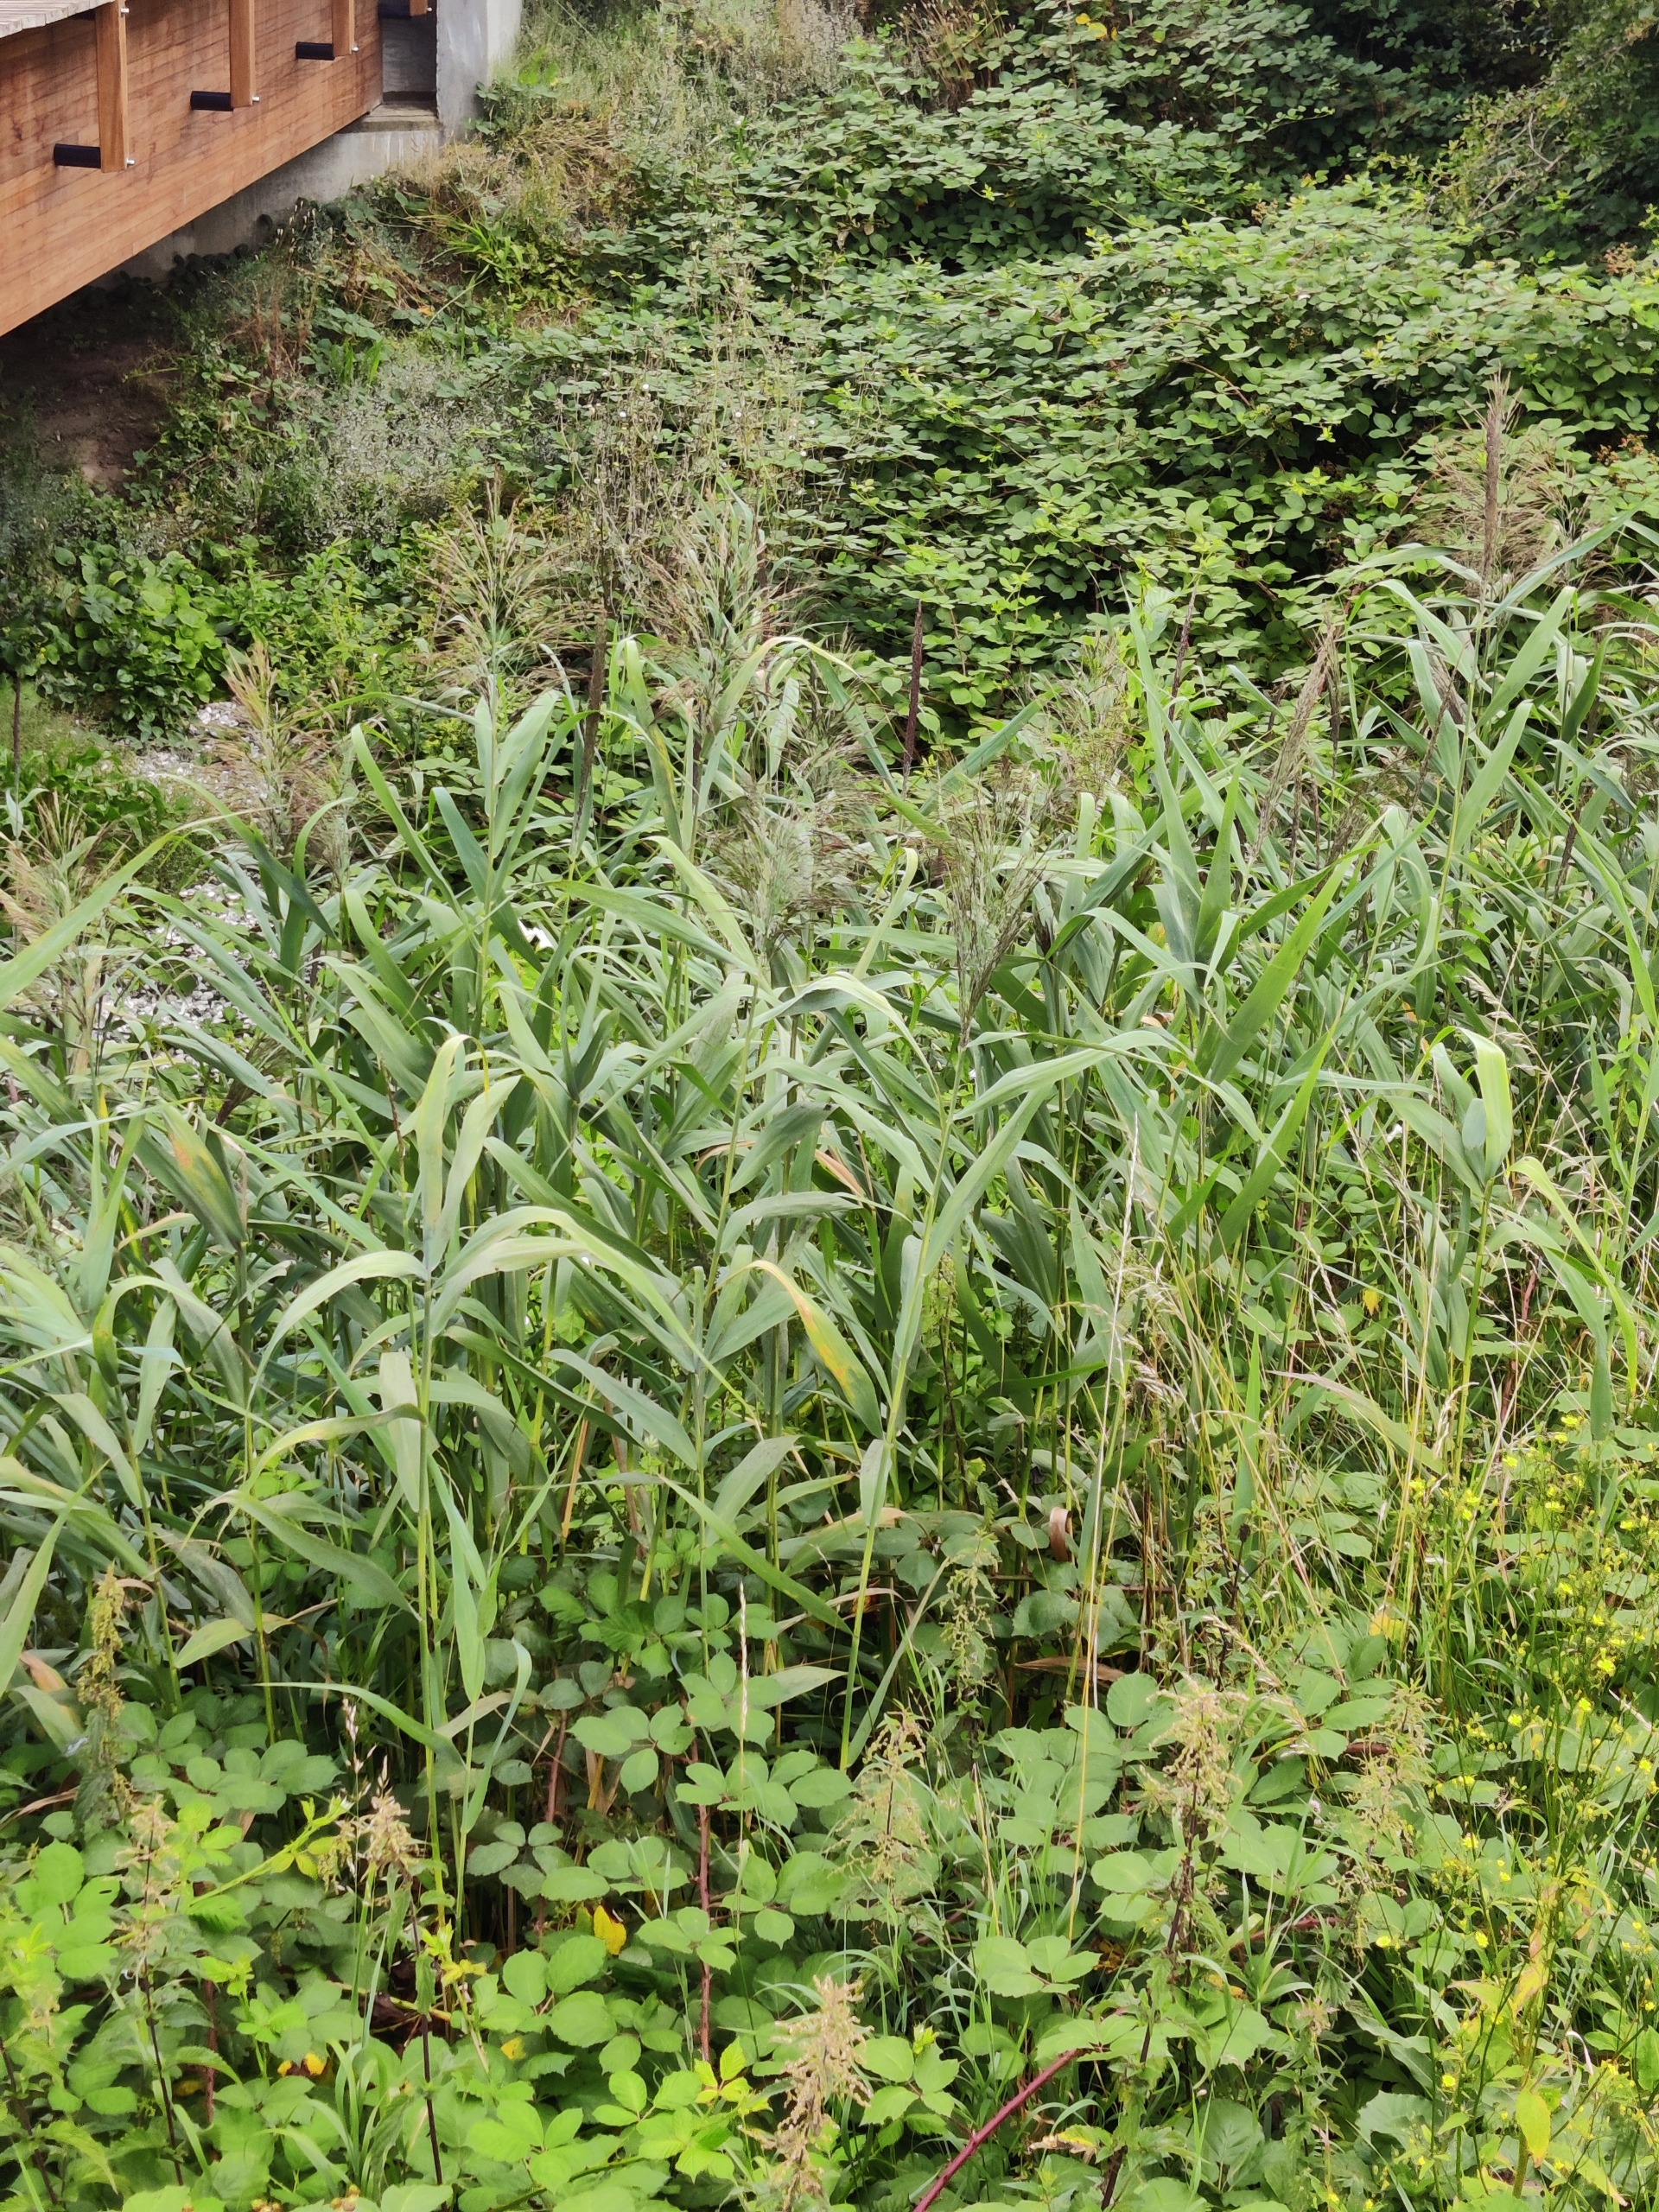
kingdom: Plantae
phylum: Tracheophyta
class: Liliopsida
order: Poales
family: Poaceae
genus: Phragmites
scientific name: Phragmites australis
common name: Tagrør
